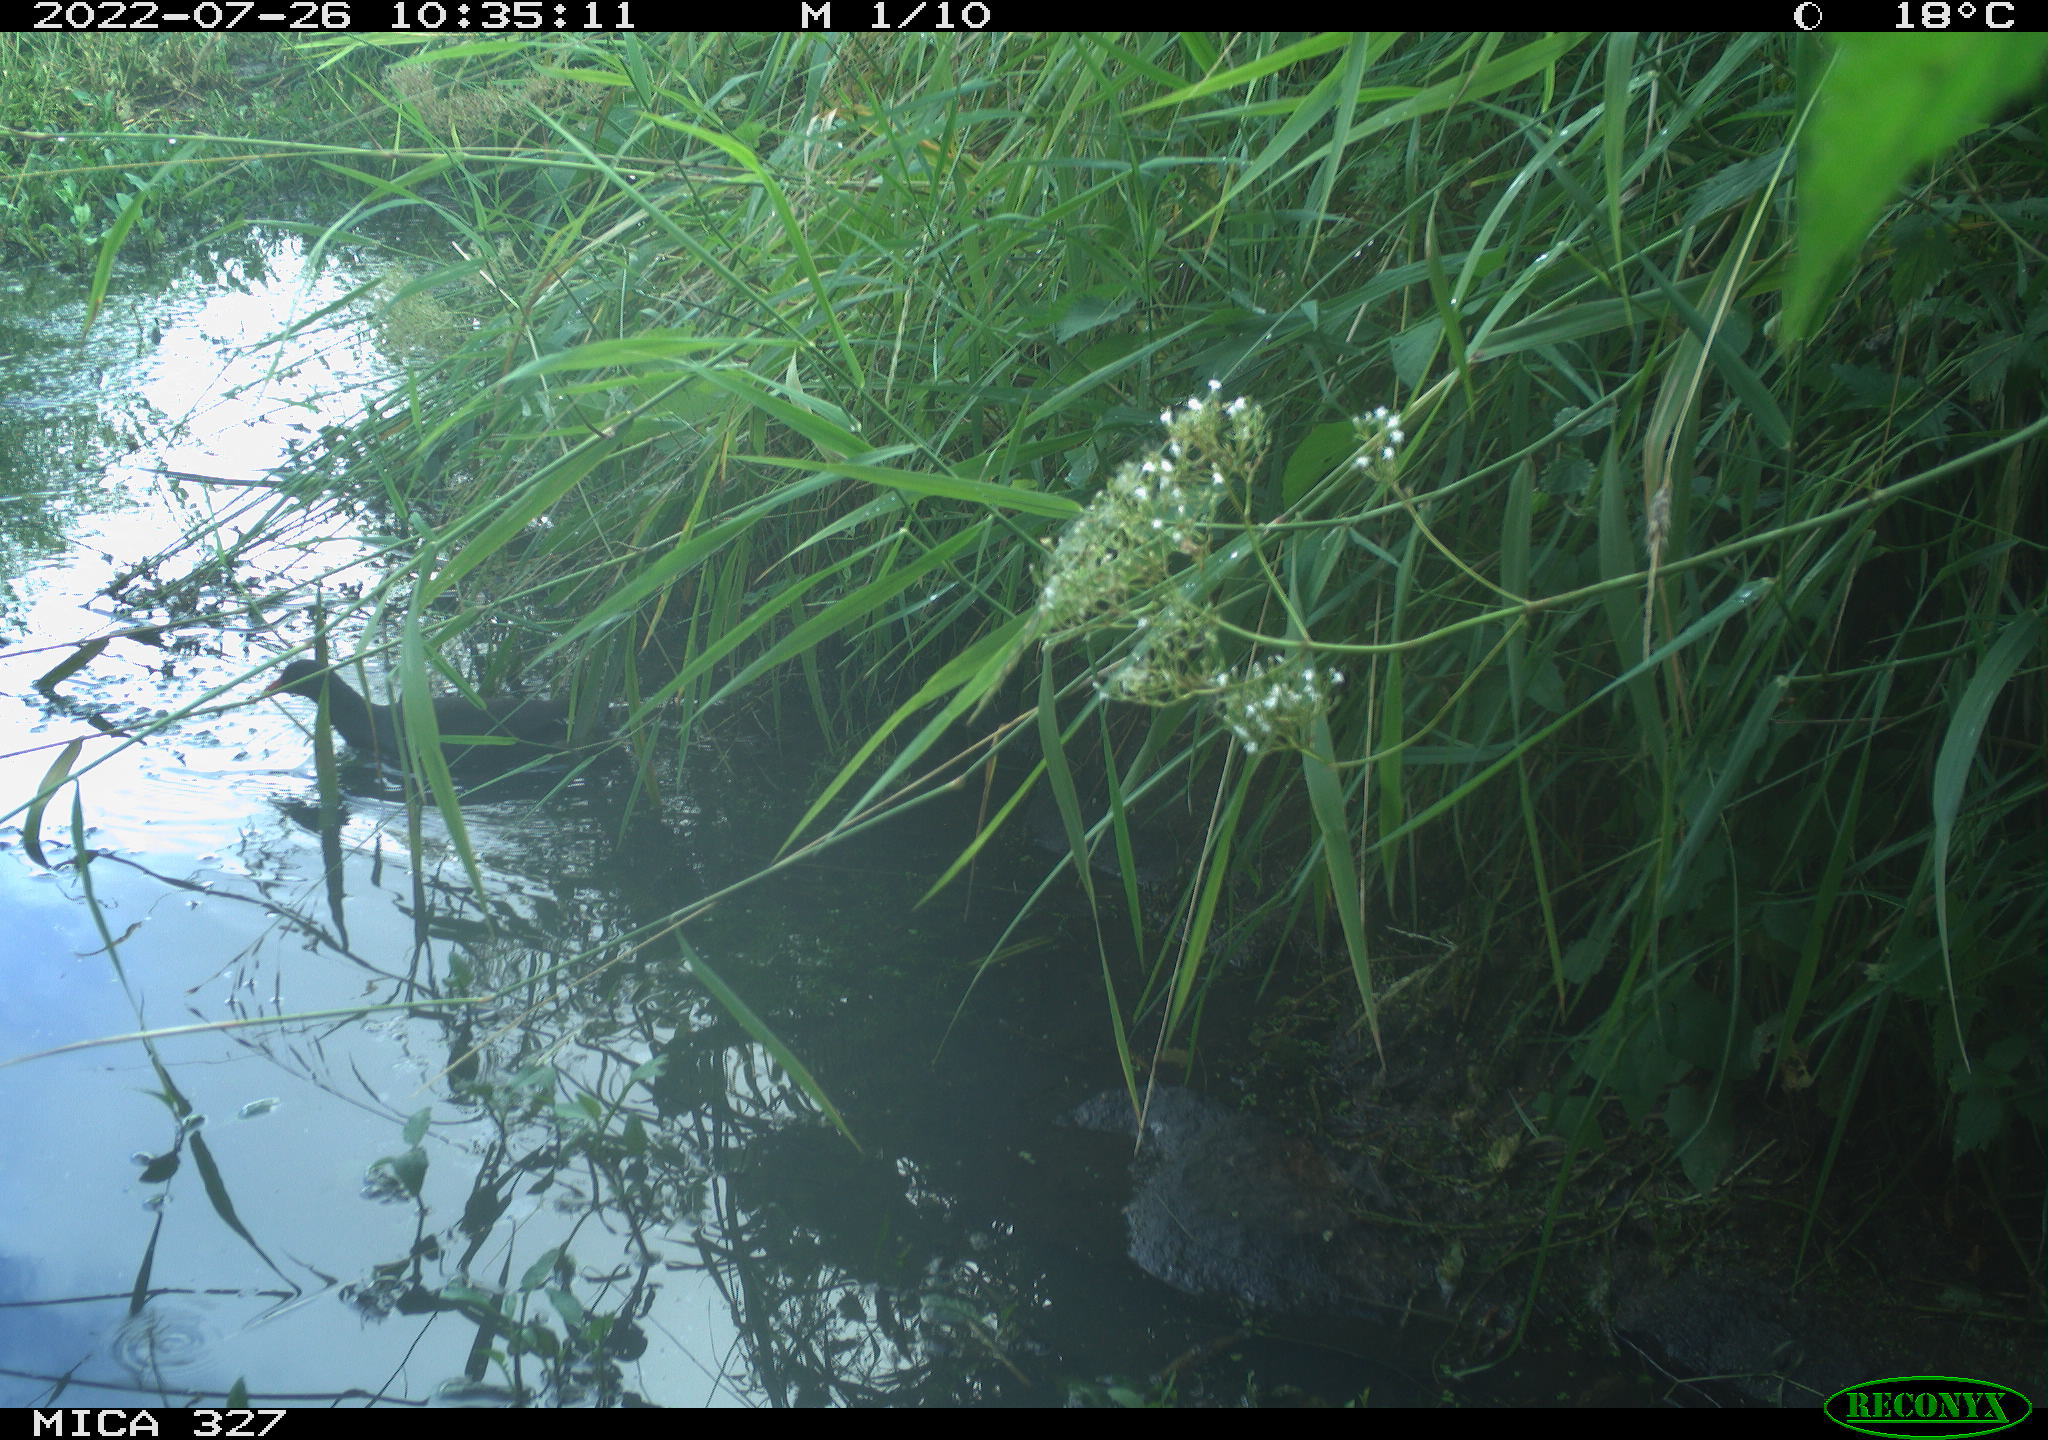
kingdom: Animalia
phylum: Chordata
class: Aves
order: Gruiformes
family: Rallidae
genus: Gallinula
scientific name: Gallinula chloropus
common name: Common moorhen
